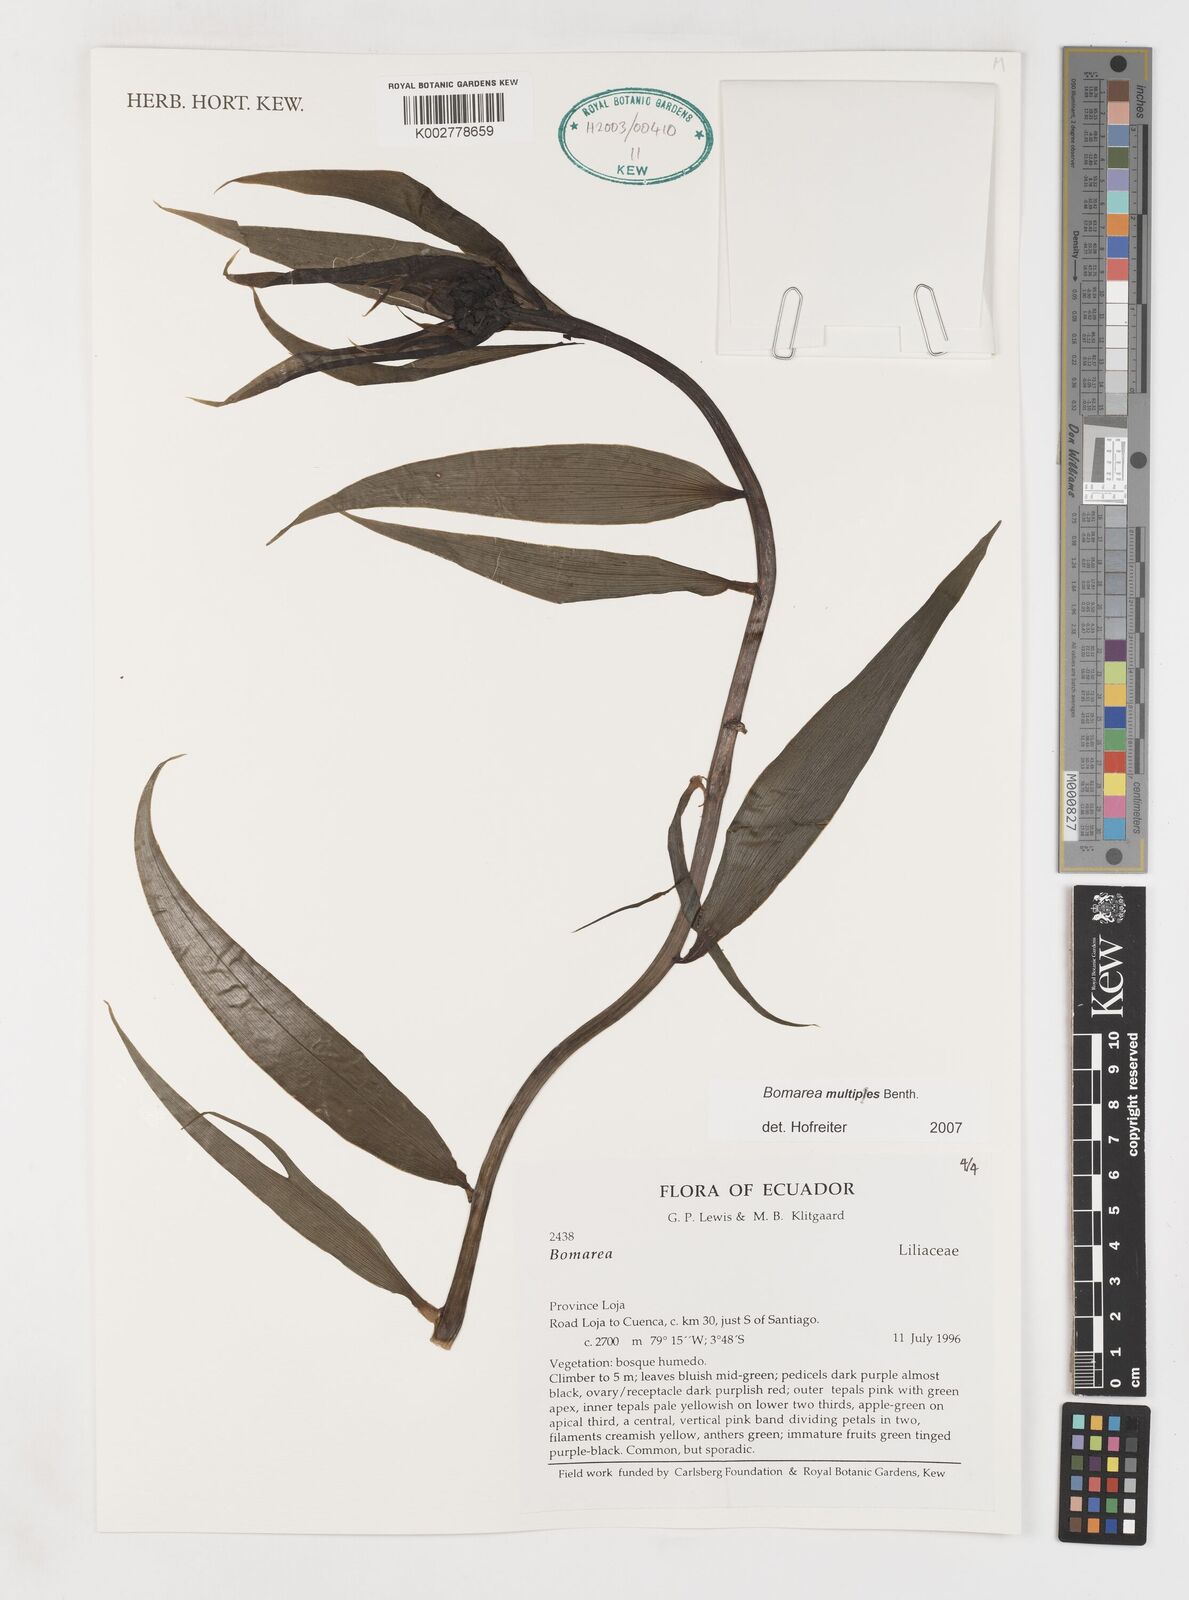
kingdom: Plantae
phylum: Tracheophyta
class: Liliopsida
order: Liliales
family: Alstroemeriaceae
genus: Bomarea
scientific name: Bomarea multipes
